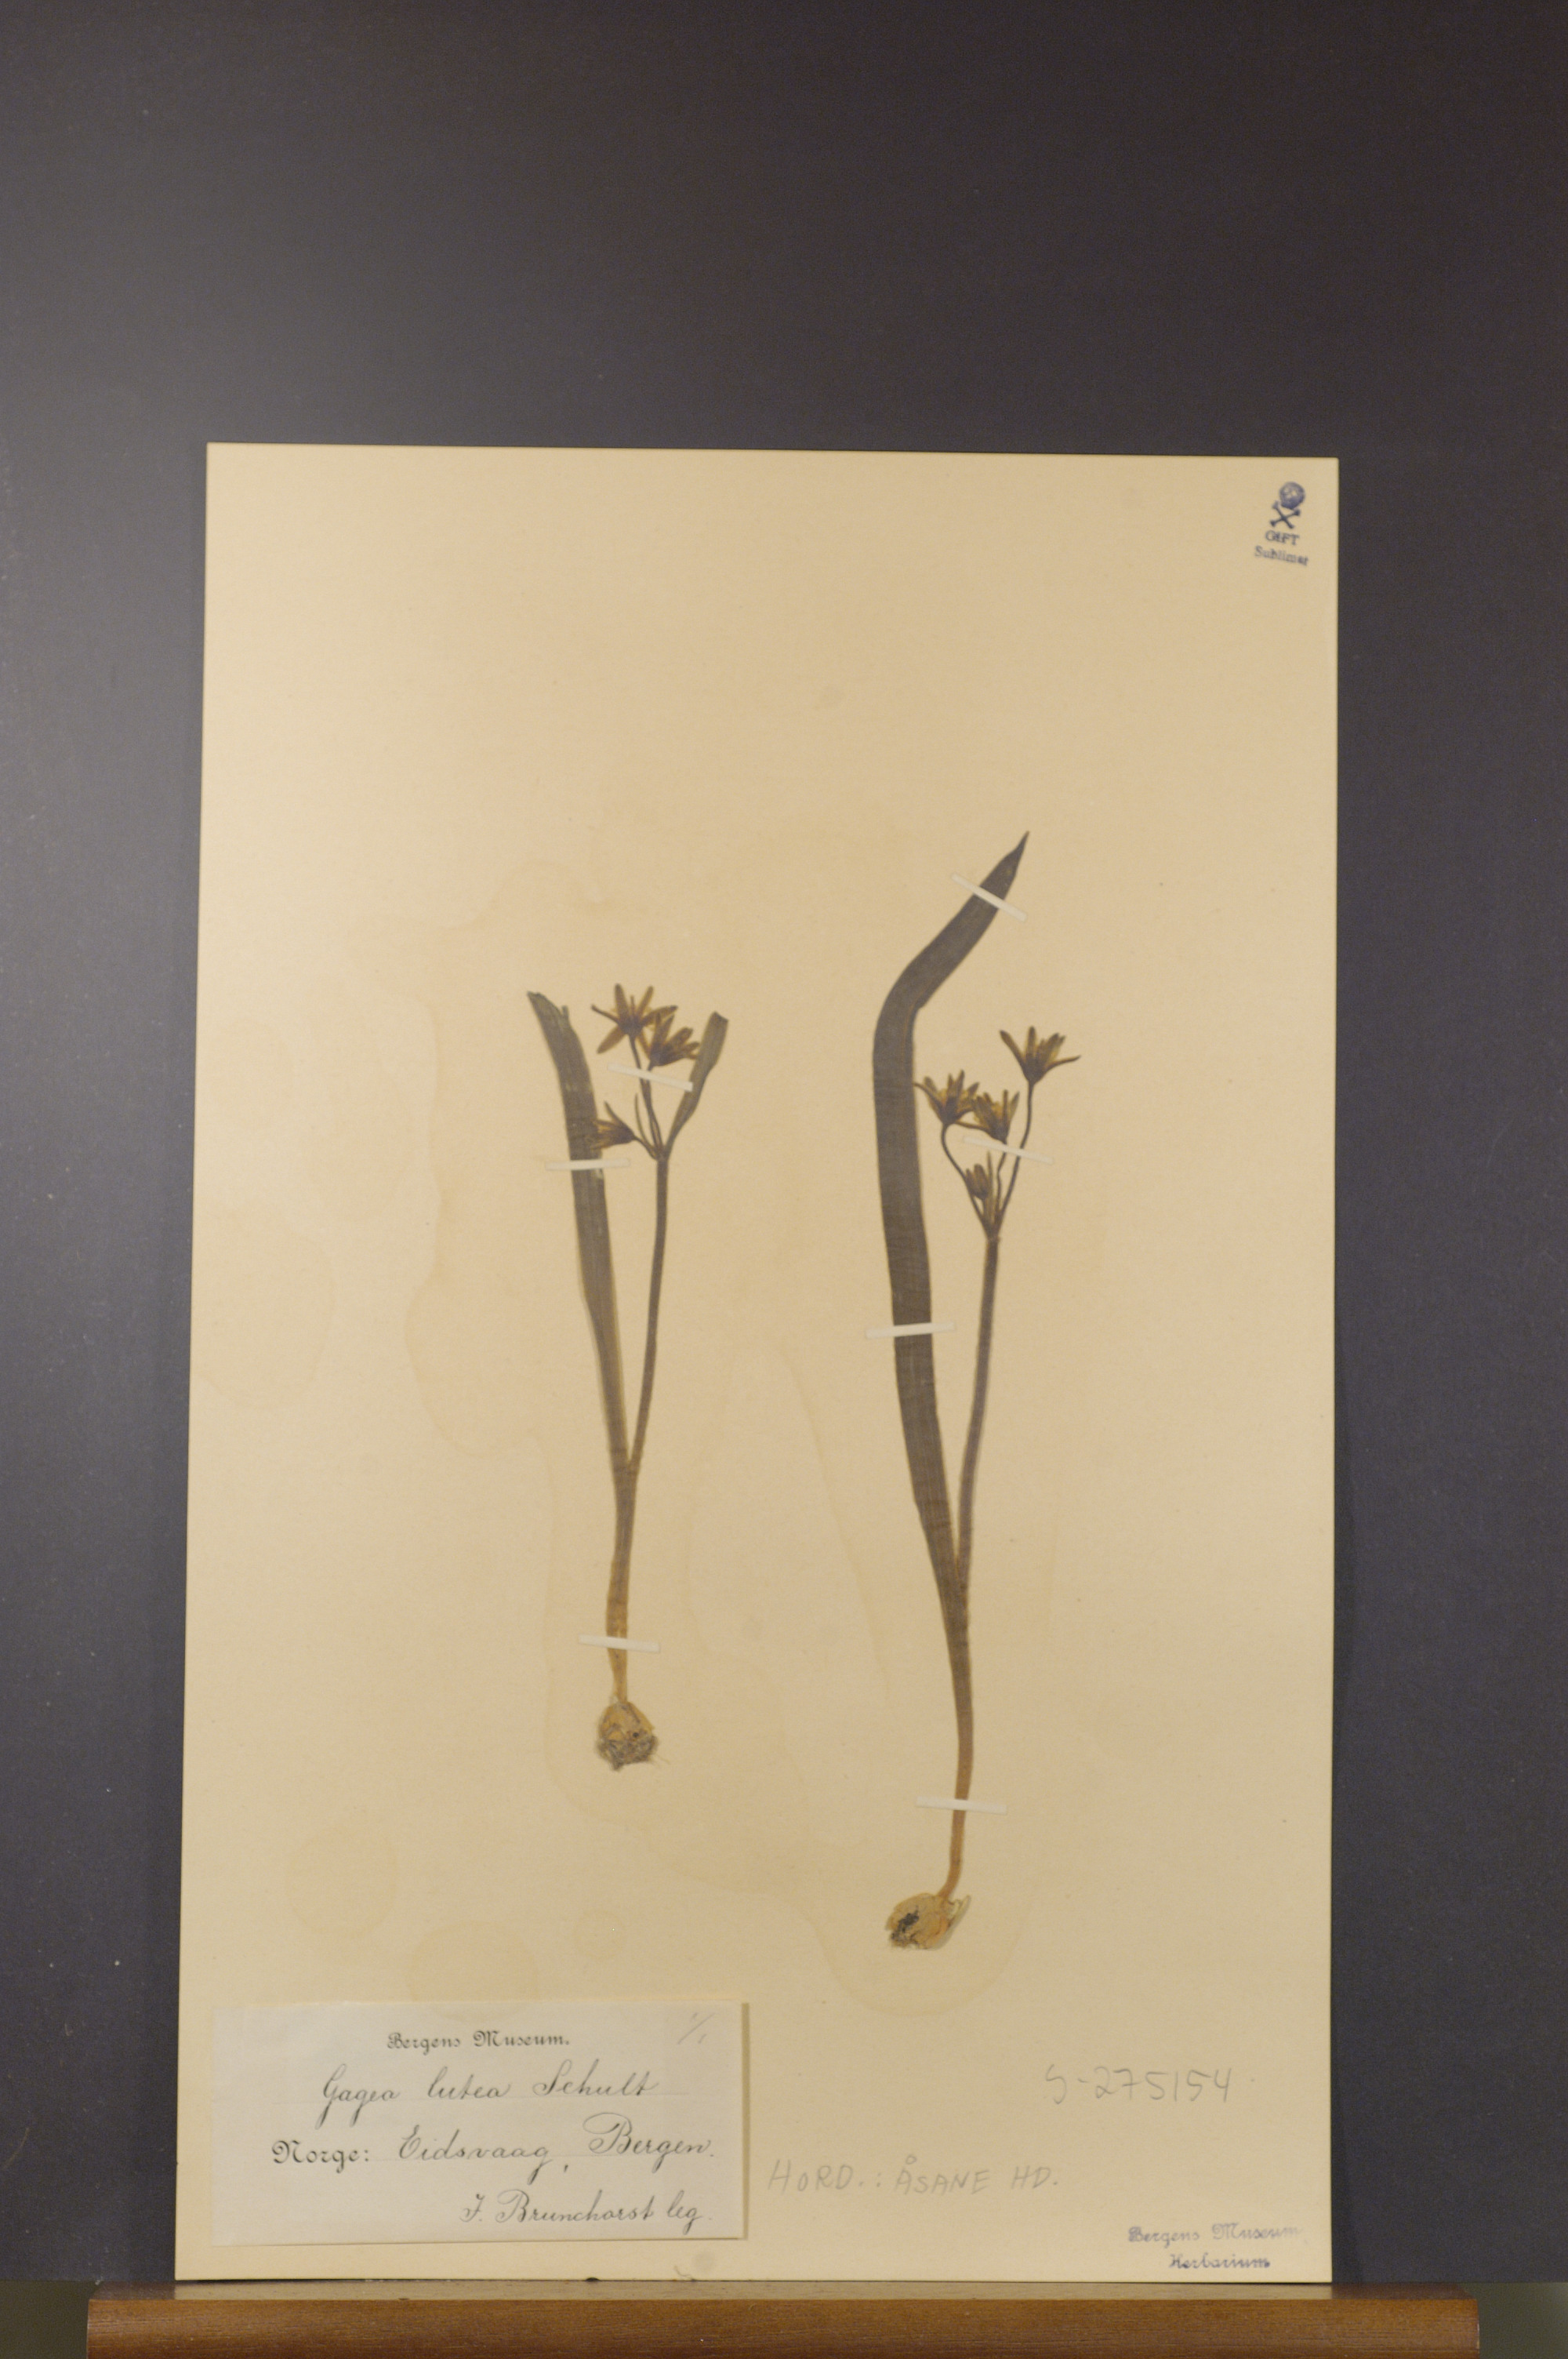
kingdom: Plantae
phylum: Tracheophyta
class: Liliopsida
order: Liliales
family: Liliaceae
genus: Gagea
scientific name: Gagea lutea
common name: Yellow star-of-bethlehem
